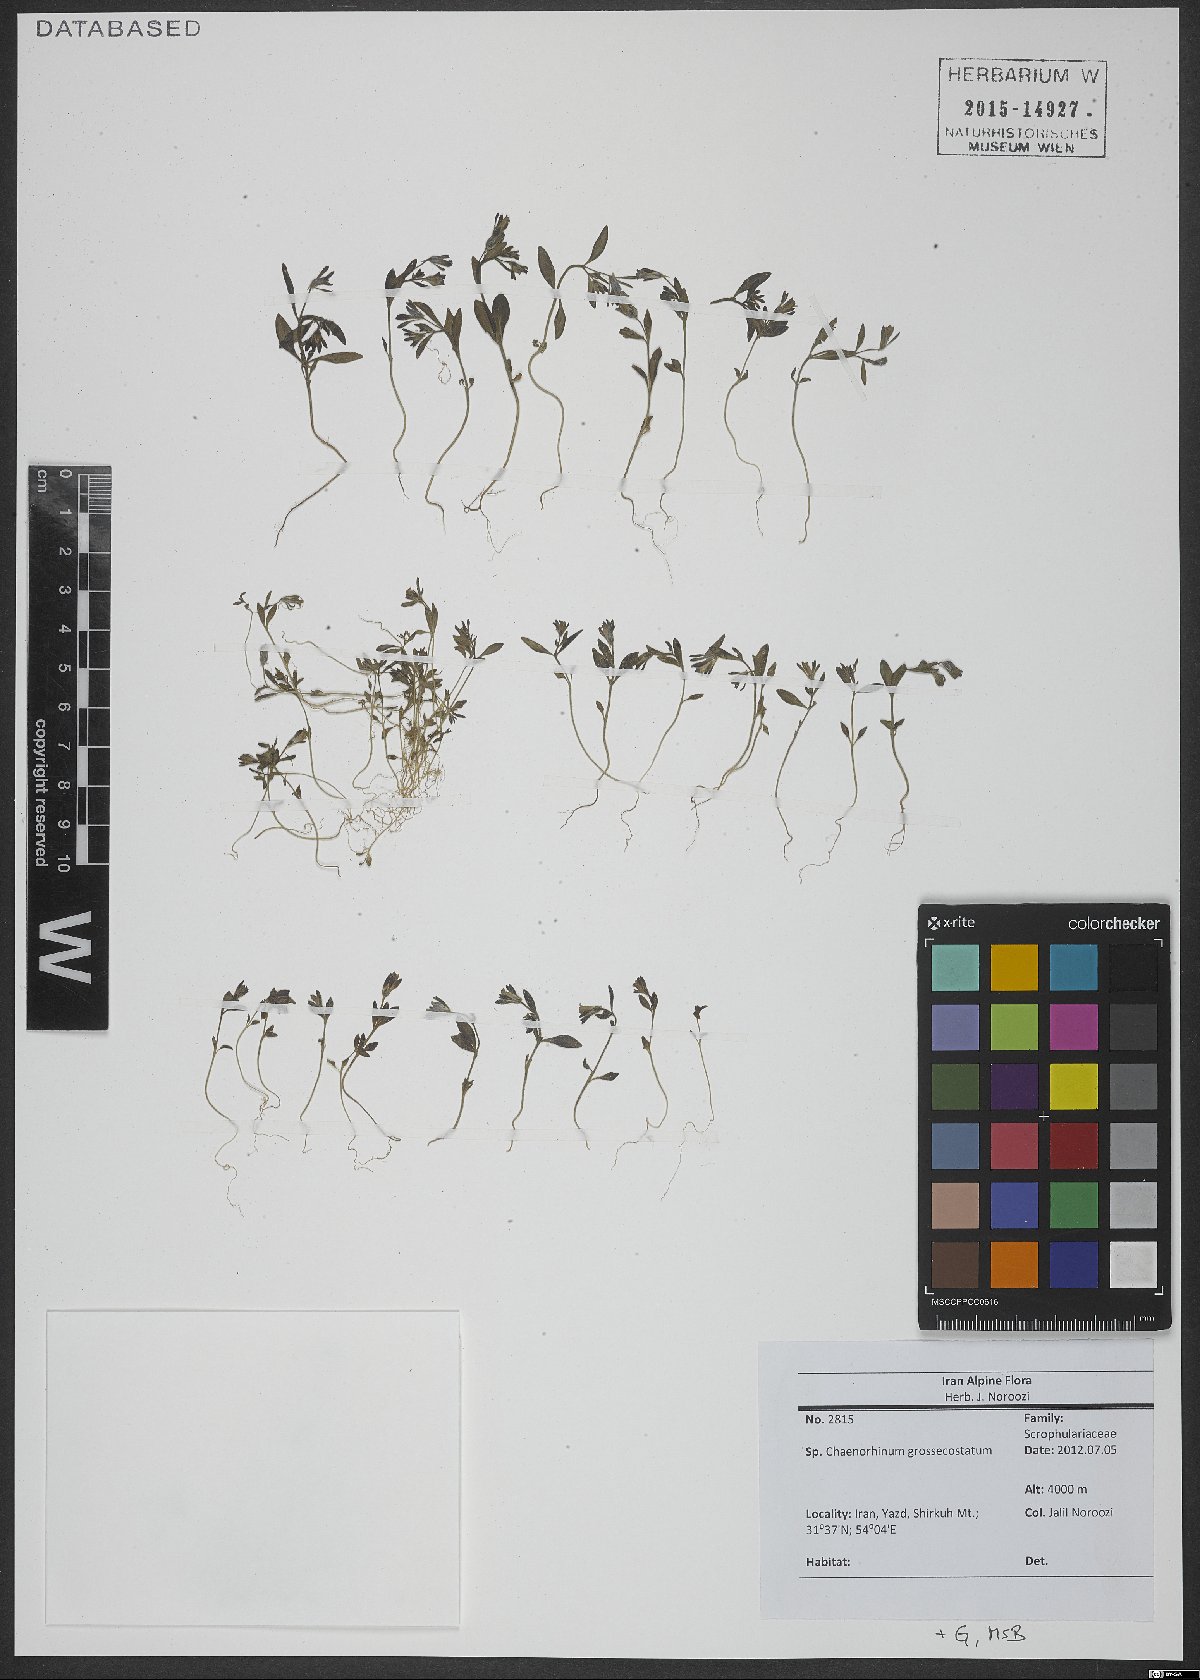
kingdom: Plantae
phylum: Tracheophyta
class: Magnoliopsida
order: Lamiales
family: Plantaginaceae
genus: Chaenorhinum
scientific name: Chaenorhinum grossecostatum
